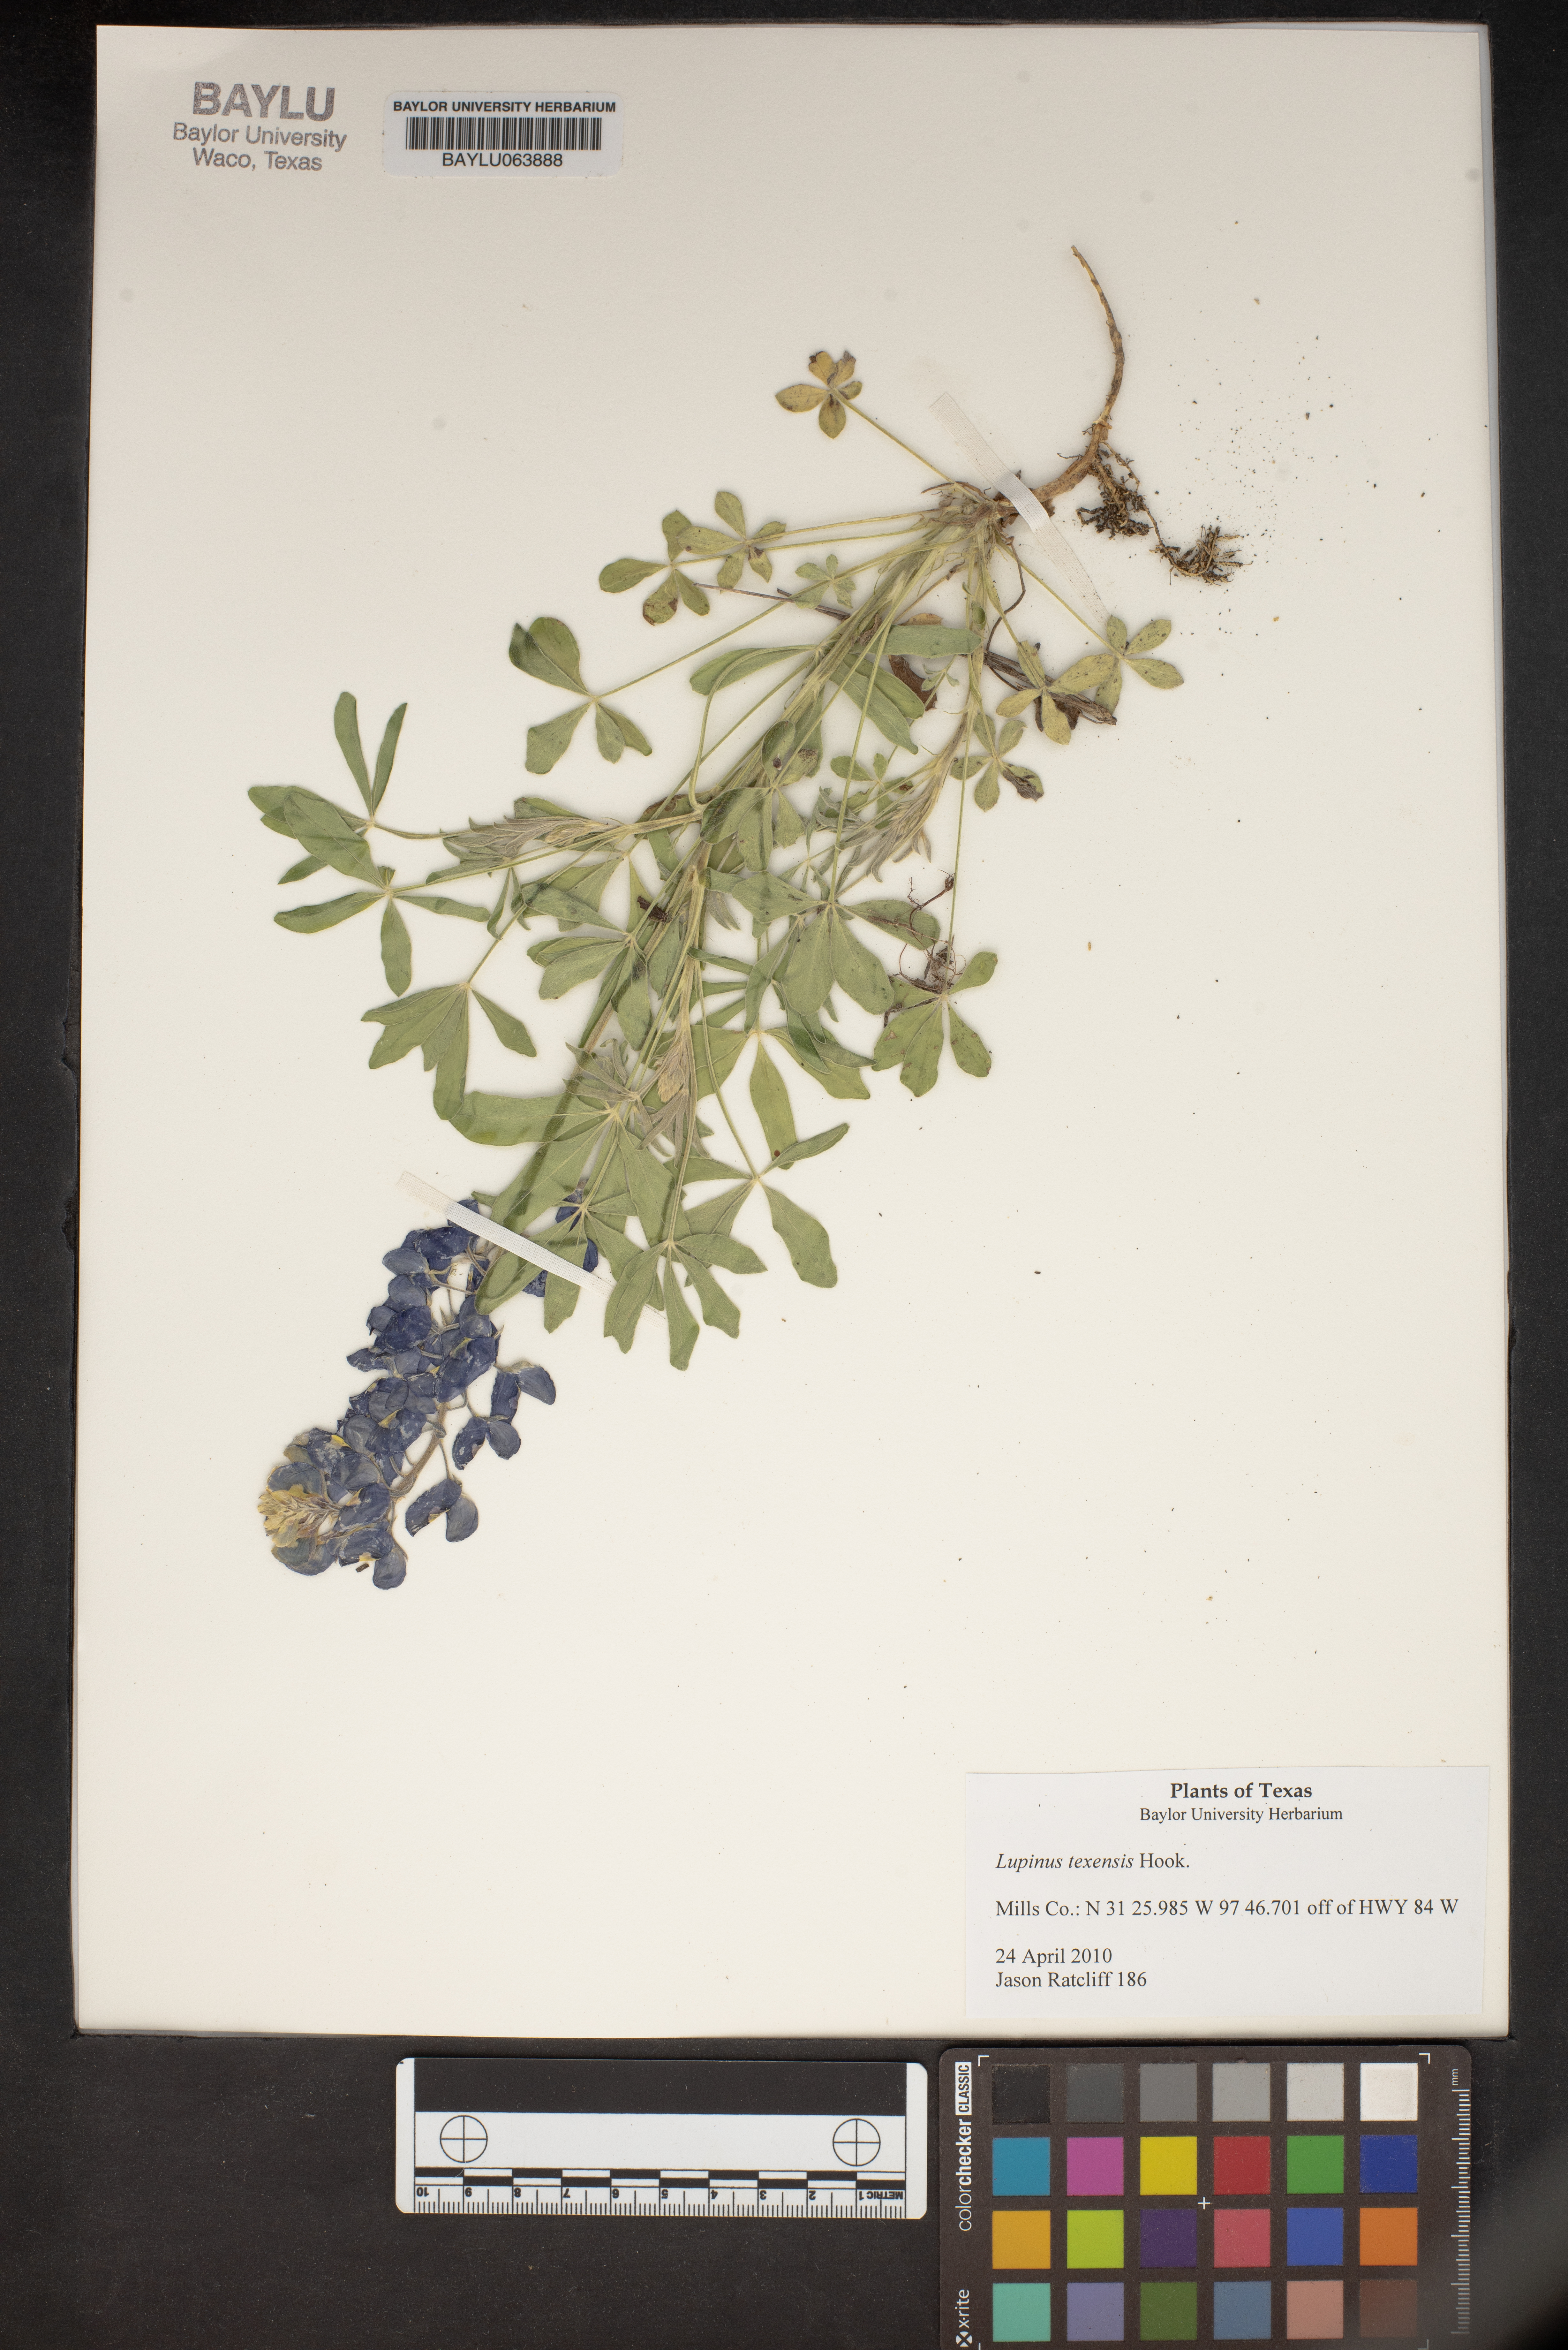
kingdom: Plantae
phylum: Tracheophyta
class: Magnoliopsida
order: Fabales
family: Fabaceae
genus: Lupinus
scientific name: Lupinus texensis
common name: Texas bluebonnet
